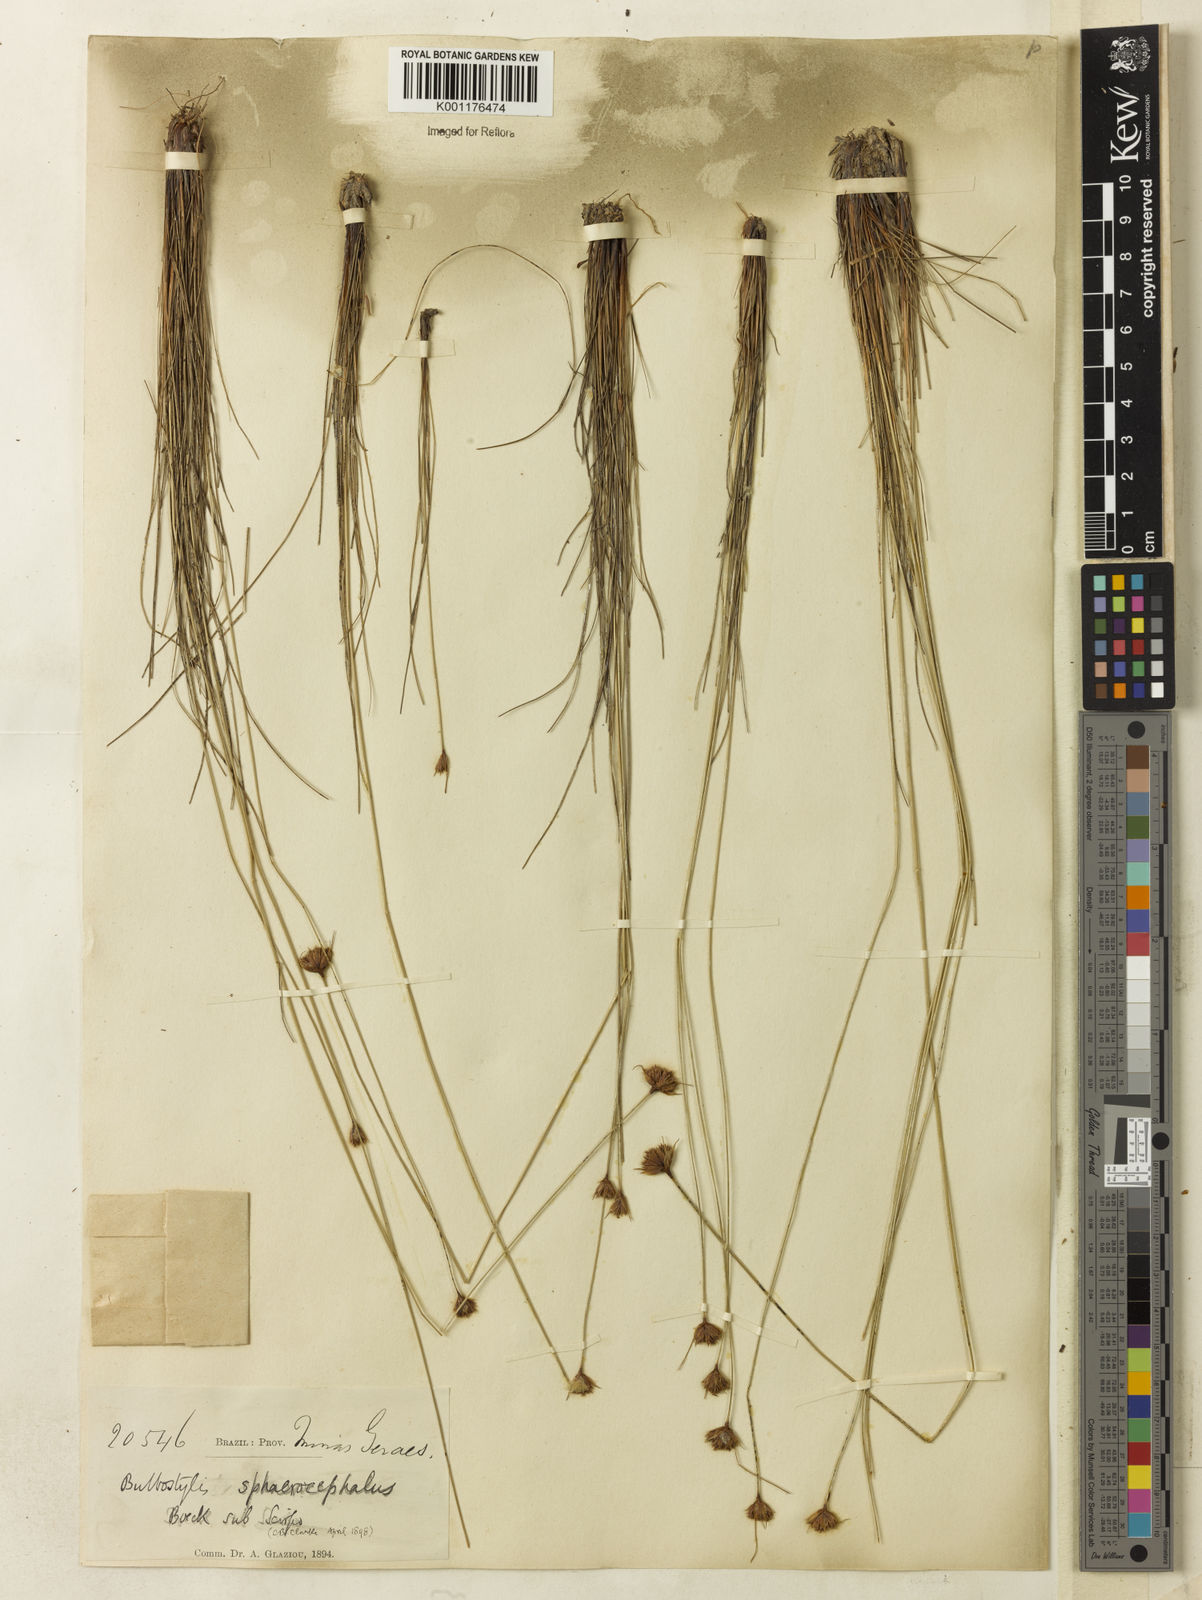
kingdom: Plantae
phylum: Tracheophyta
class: Liliopsida
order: Poales
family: Cyperaceae
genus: Bulbostylis
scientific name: Bulbostylis
